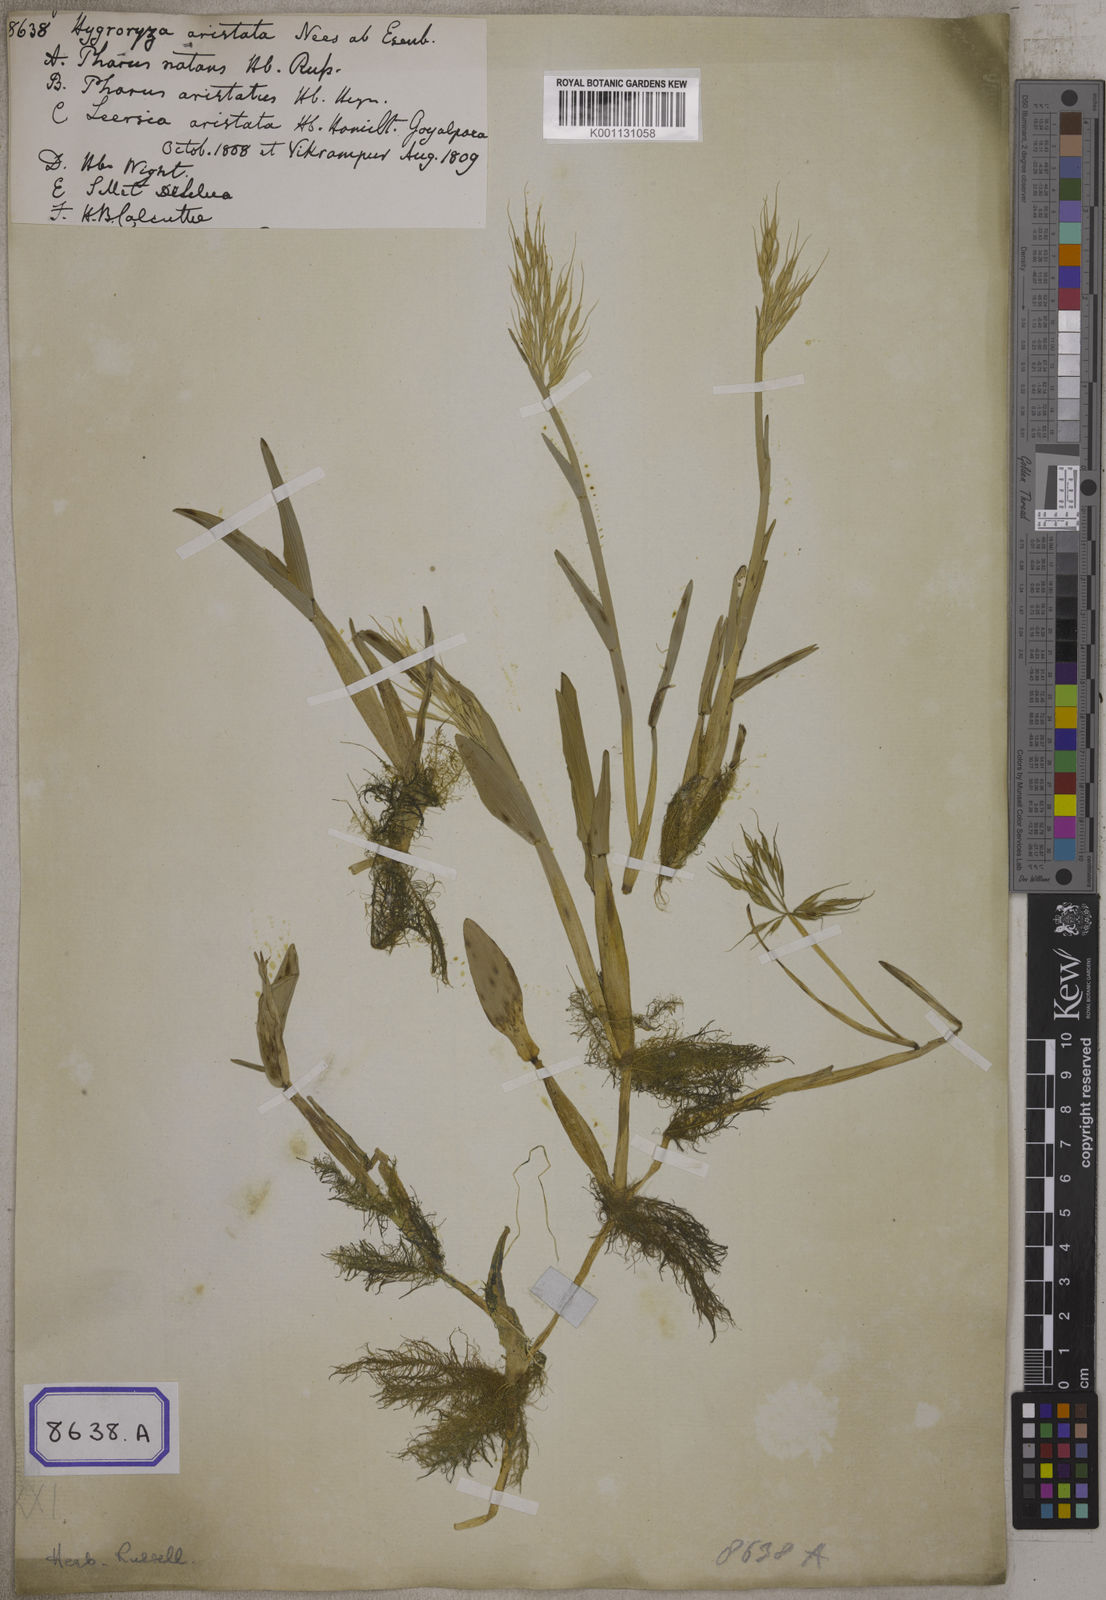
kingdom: Plantae
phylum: Tracheophyta
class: Liliopsida
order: Poales
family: Poaceae
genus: Hygroryza
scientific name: Hygroryza
